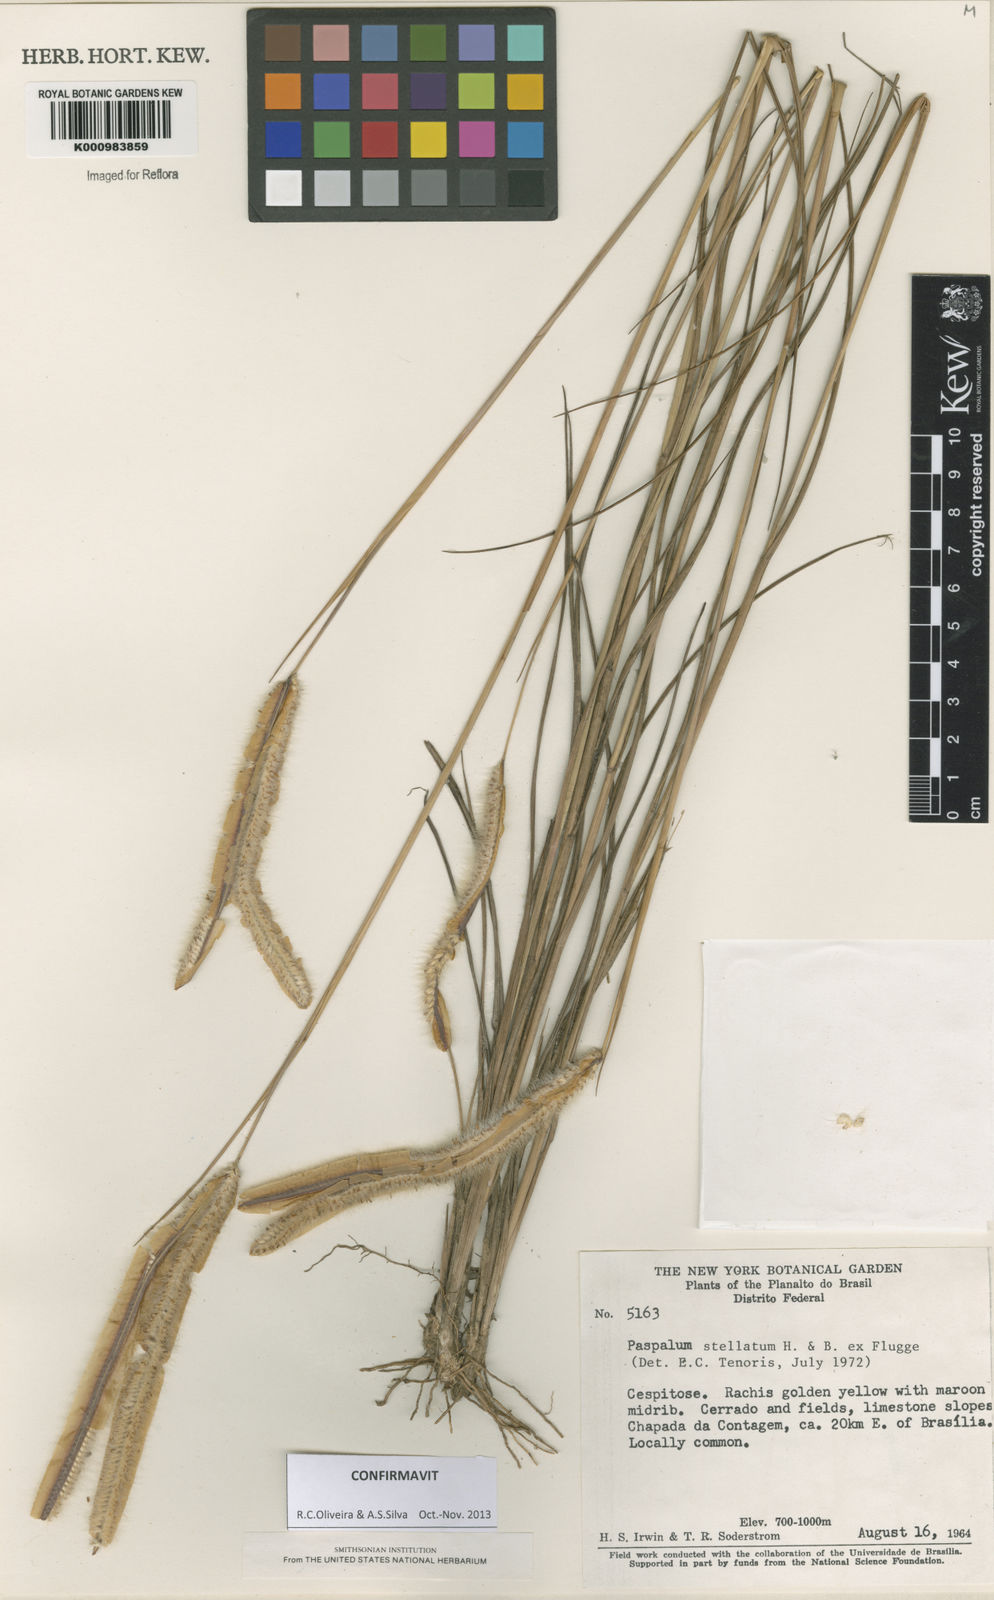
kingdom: Plantae
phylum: Tracheophyta
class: Liliopsida
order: Poales
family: Poaceae
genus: Paspalum
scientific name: Paspalum
